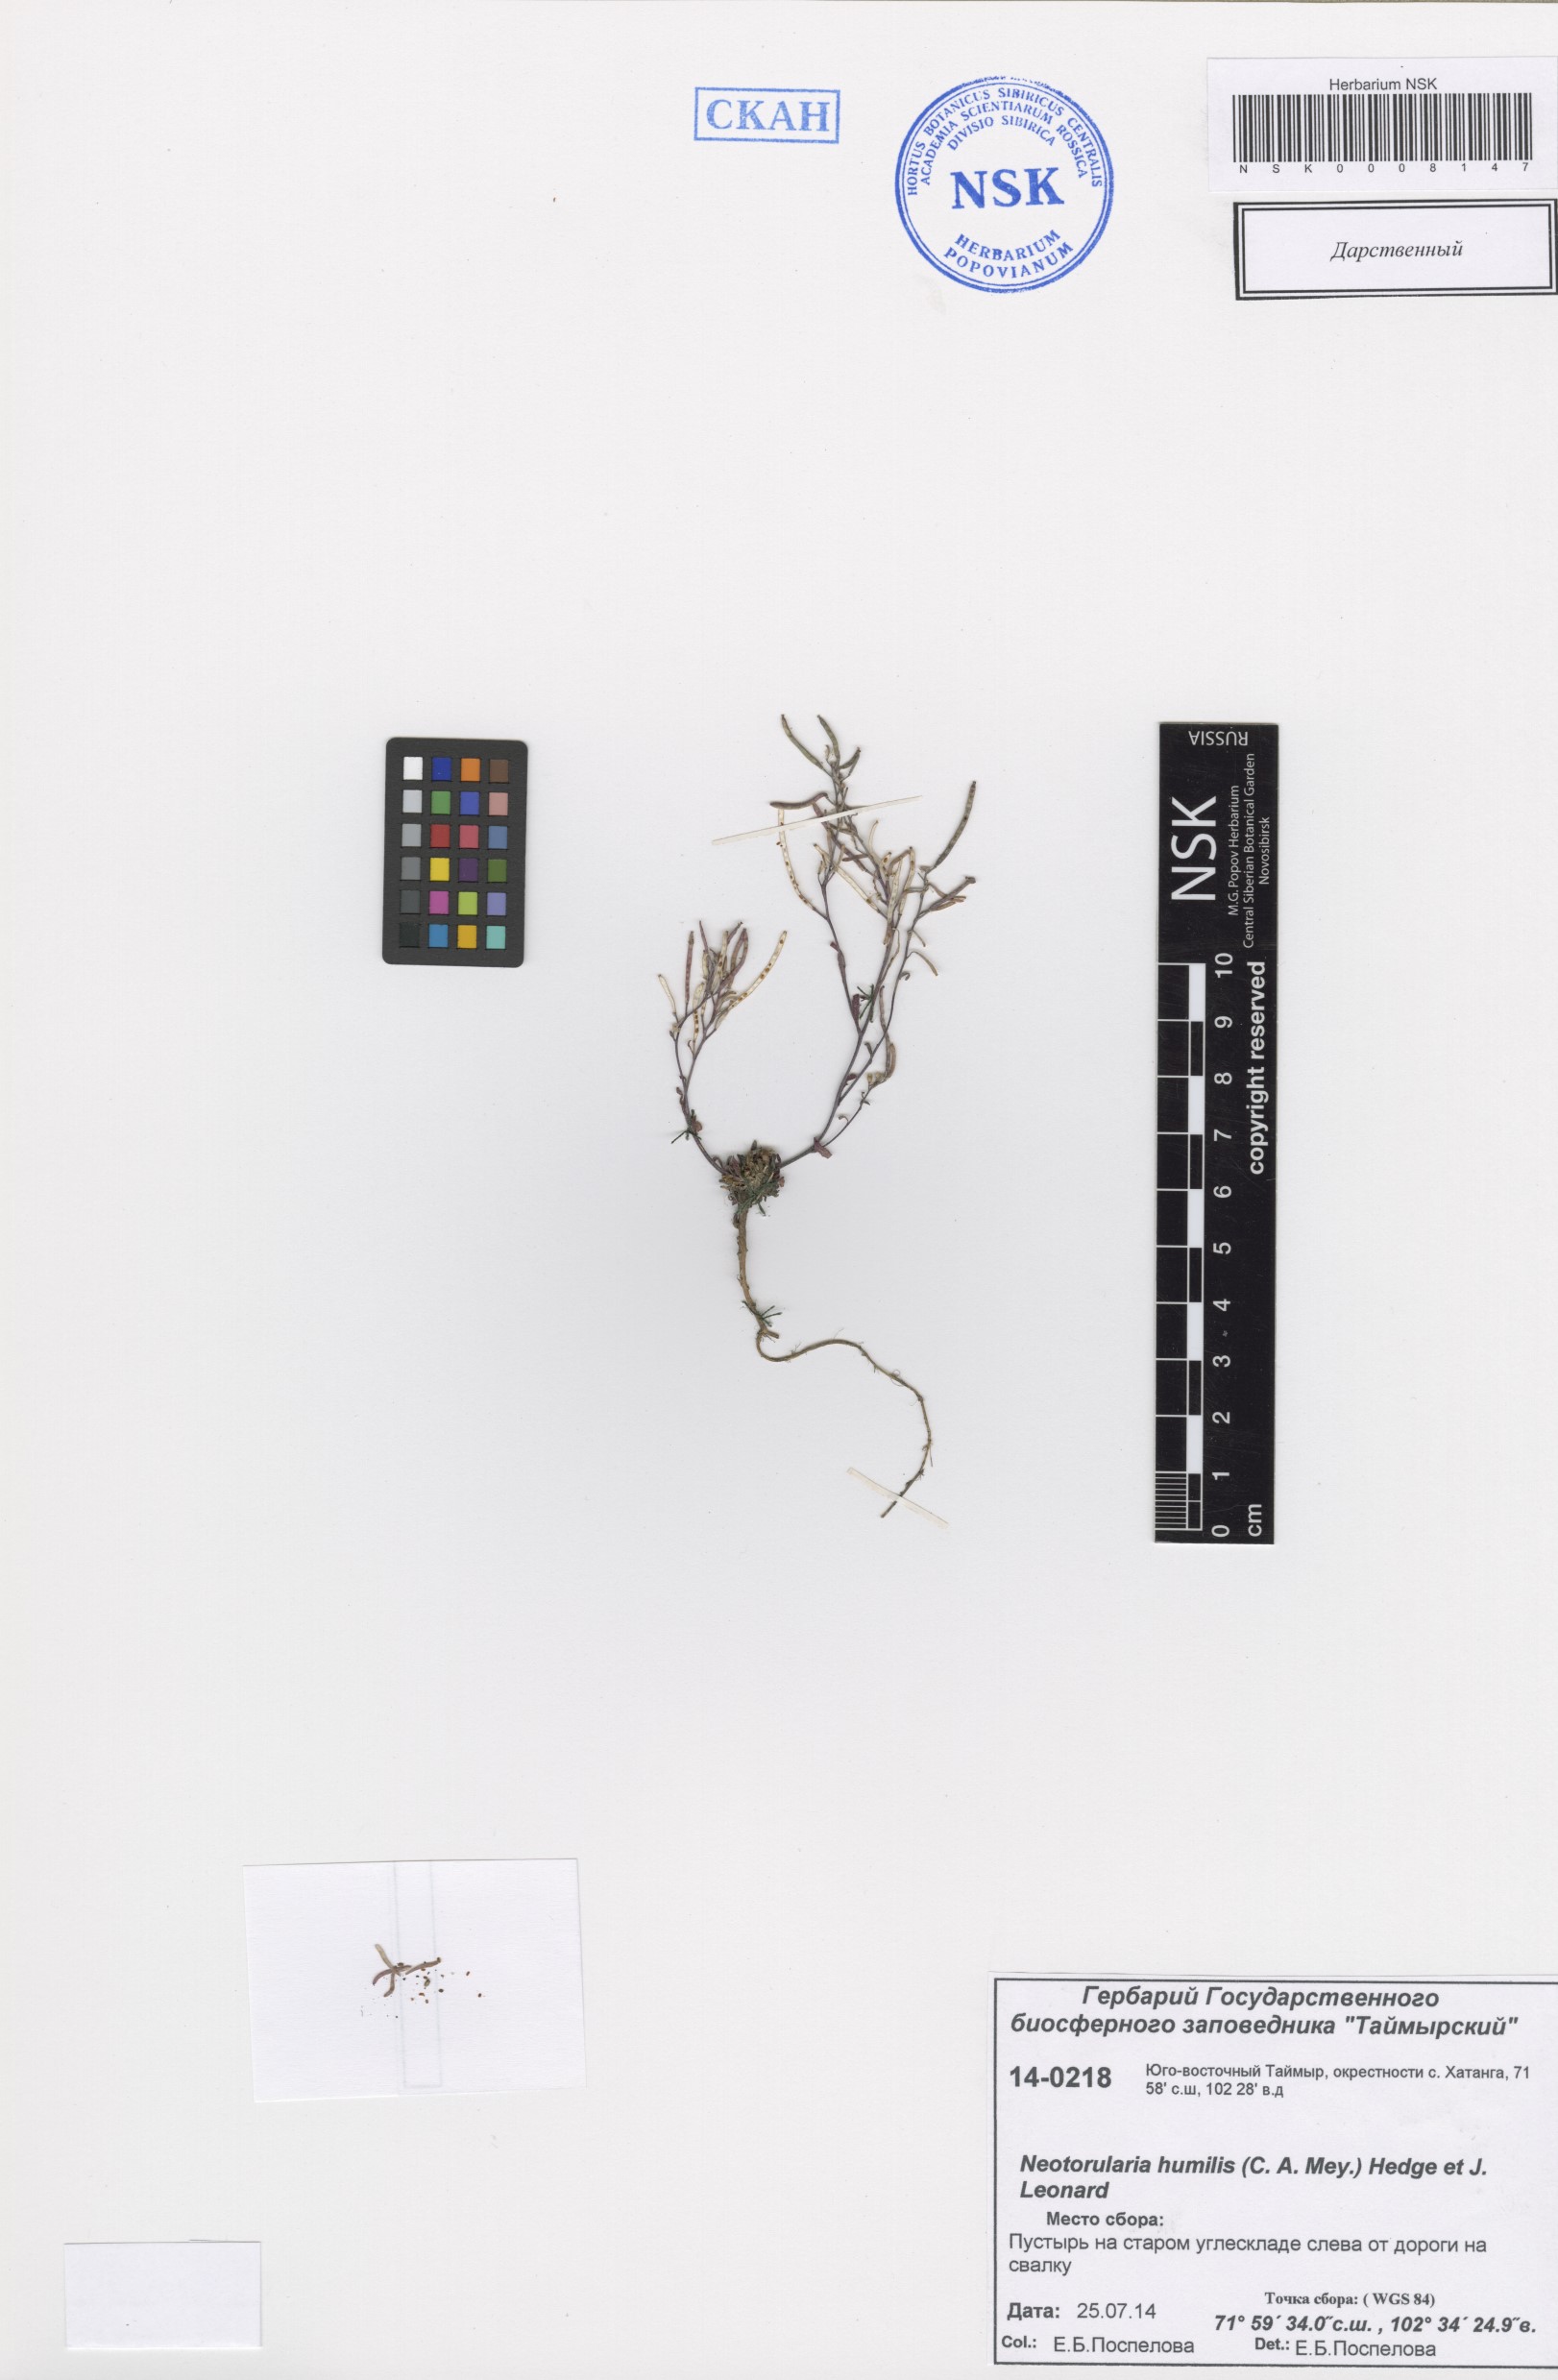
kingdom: Plantae
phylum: Tracheophyta
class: Magnoliopsida
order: Brassicales
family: Brassicaceae
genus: Braya
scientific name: Braya humilis
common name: Alpine northern rockcress
